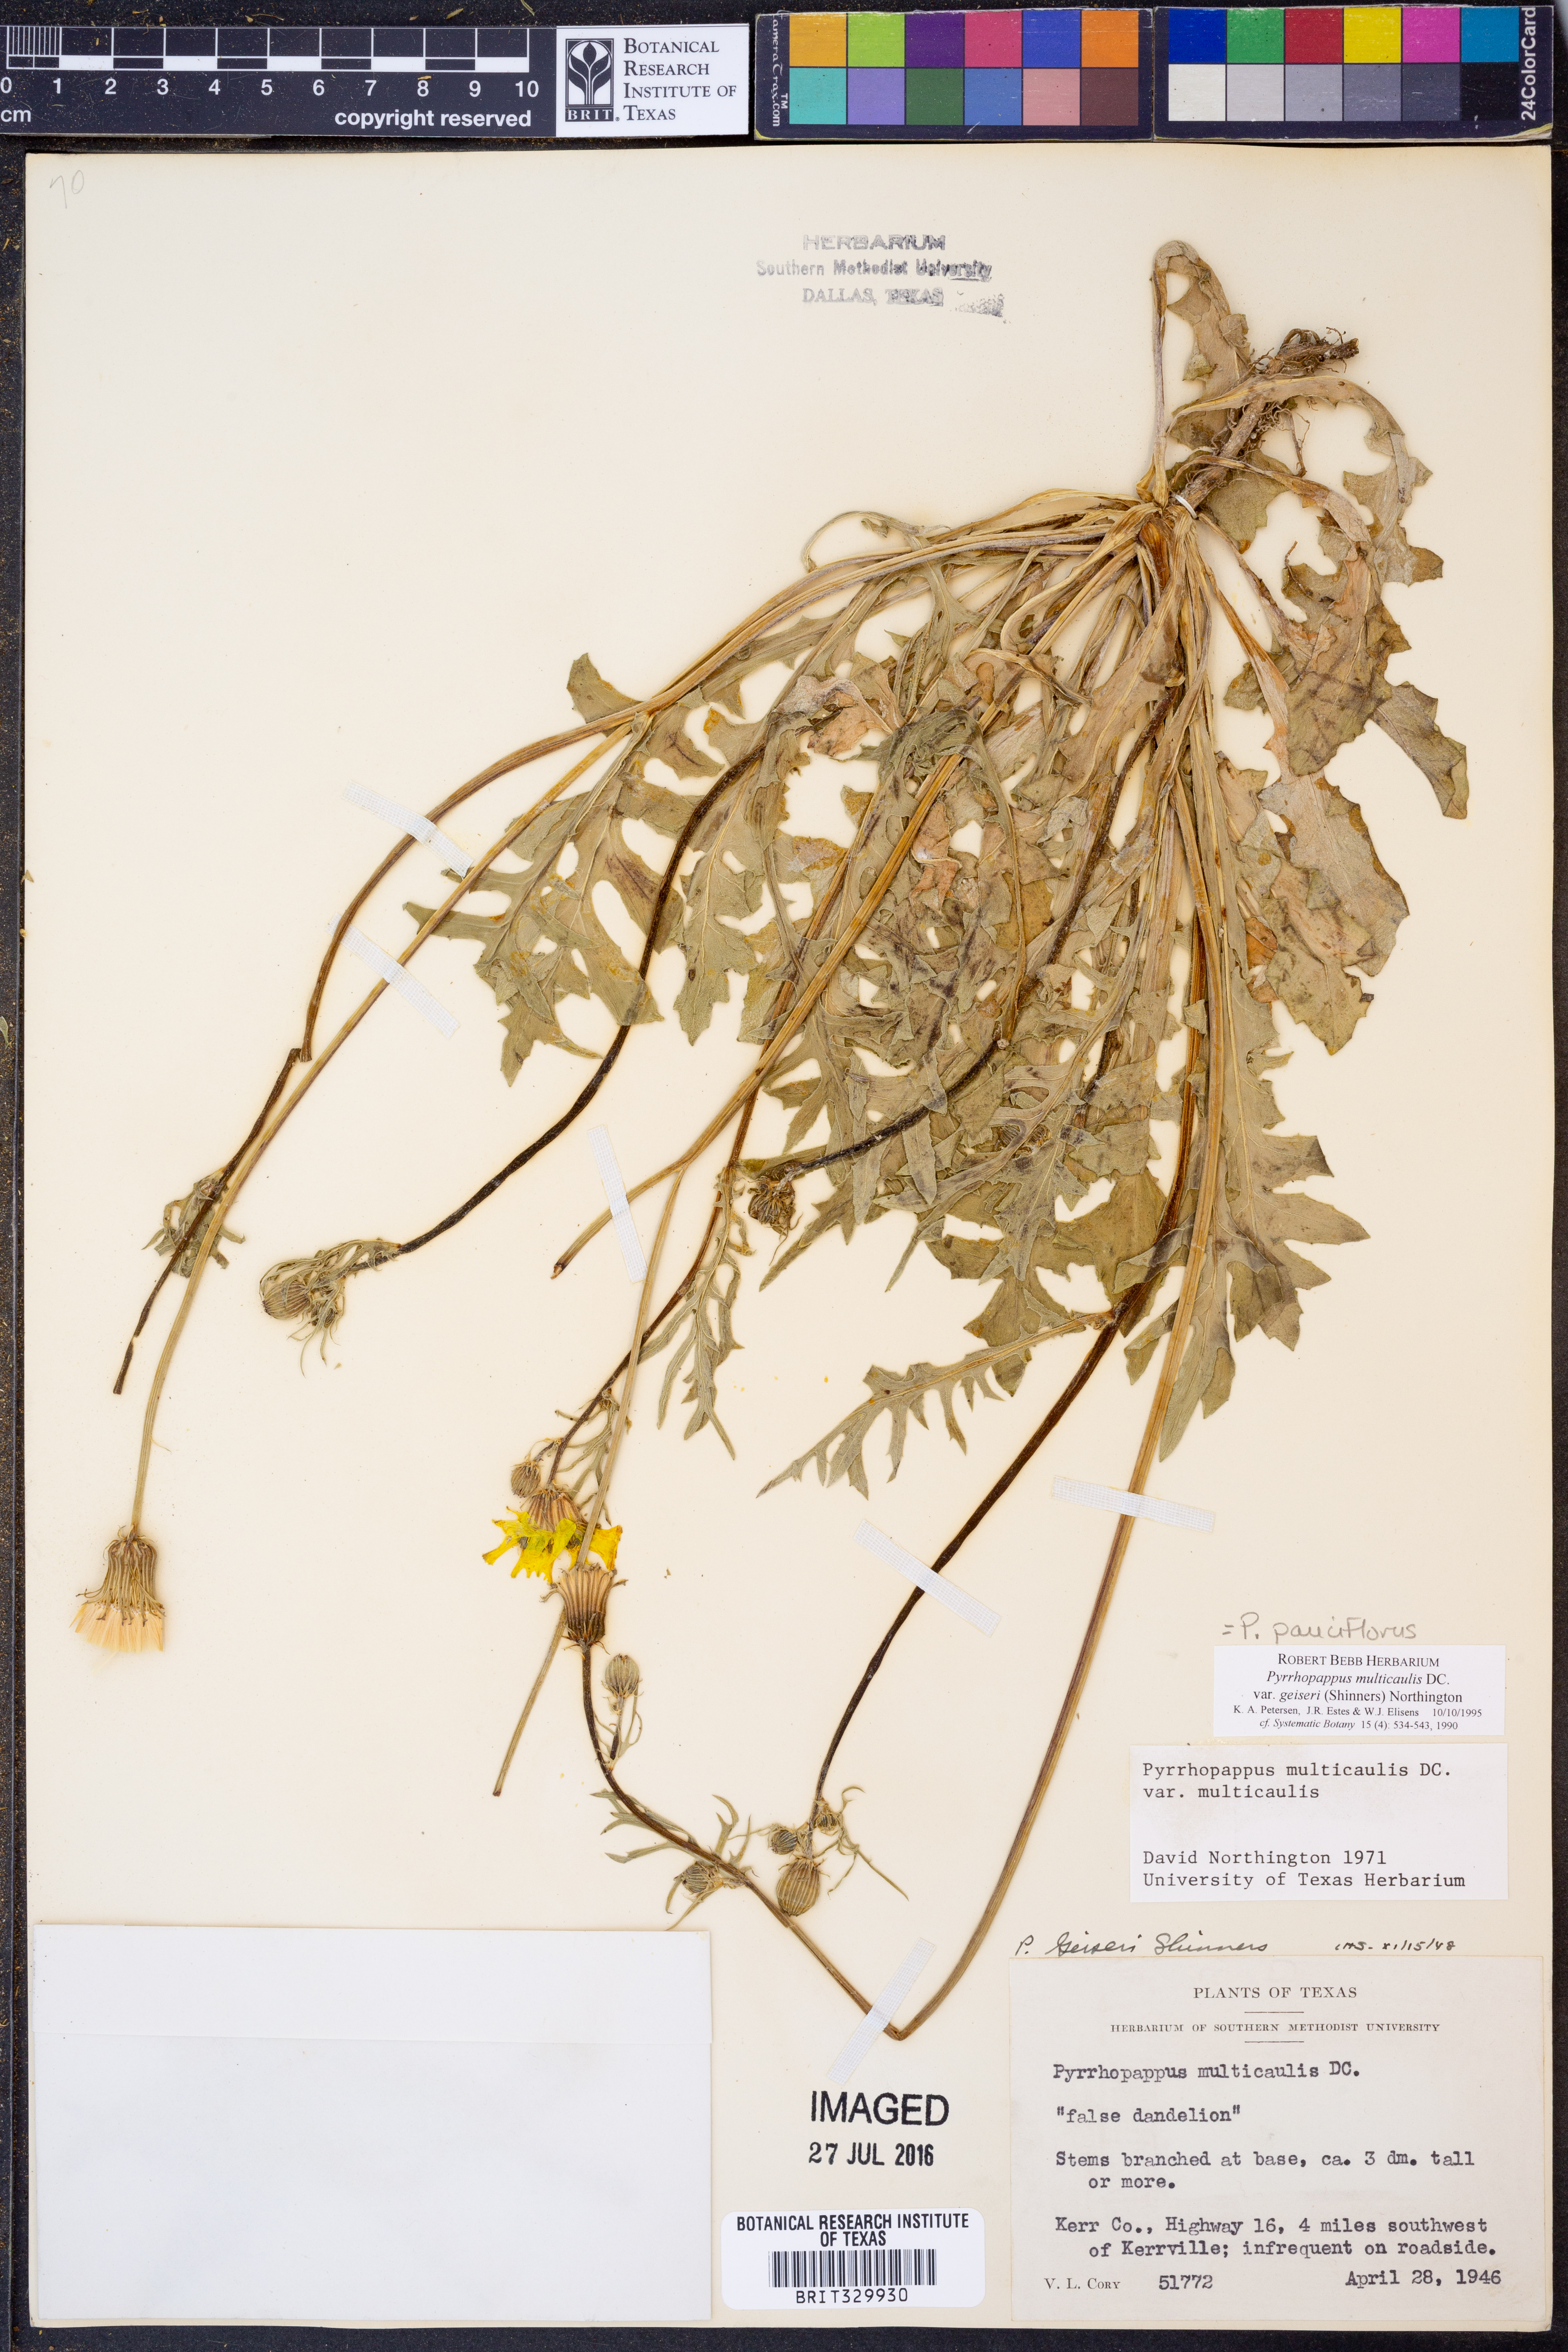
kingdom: Plantae
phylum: Tracheophyta
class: Magnoliopsida
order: Asterales
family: Asteraceae
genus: Pyrrhopappus
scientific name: Pyrrhopappus pauciflorus
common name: Texas false dandelion
